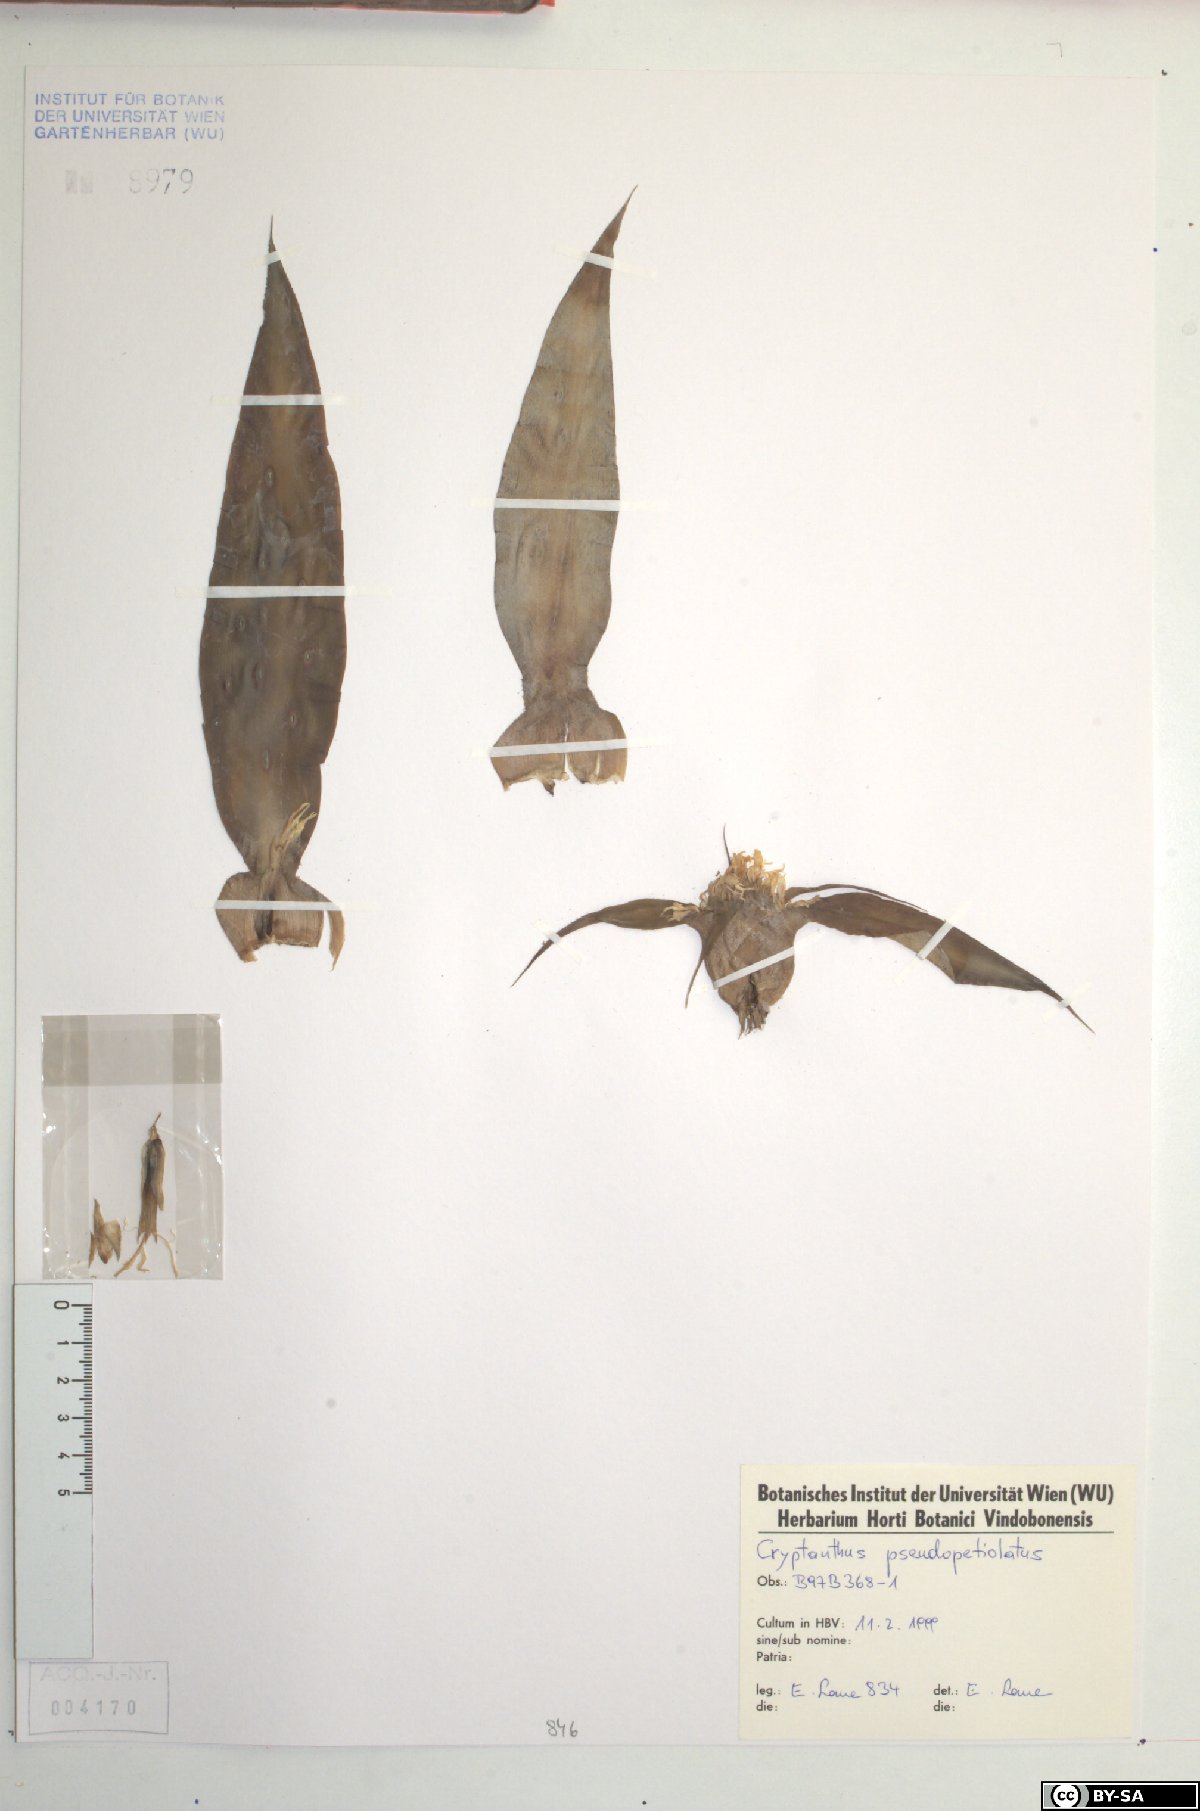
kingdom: Plantae
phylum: Tracheophyta
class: Liliopsida
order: Poales
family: Bromeliaceae
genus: Cryptanthus
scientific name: Cryptanthus pseudopetiolatus
